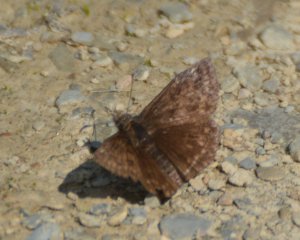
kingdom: Animalia
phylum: Arthropoda
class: Insecta
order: Lepidoptera
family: Hesperiidae
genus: Erynnis
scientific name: Erynnis icelus
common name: Dreamy Duskywing
